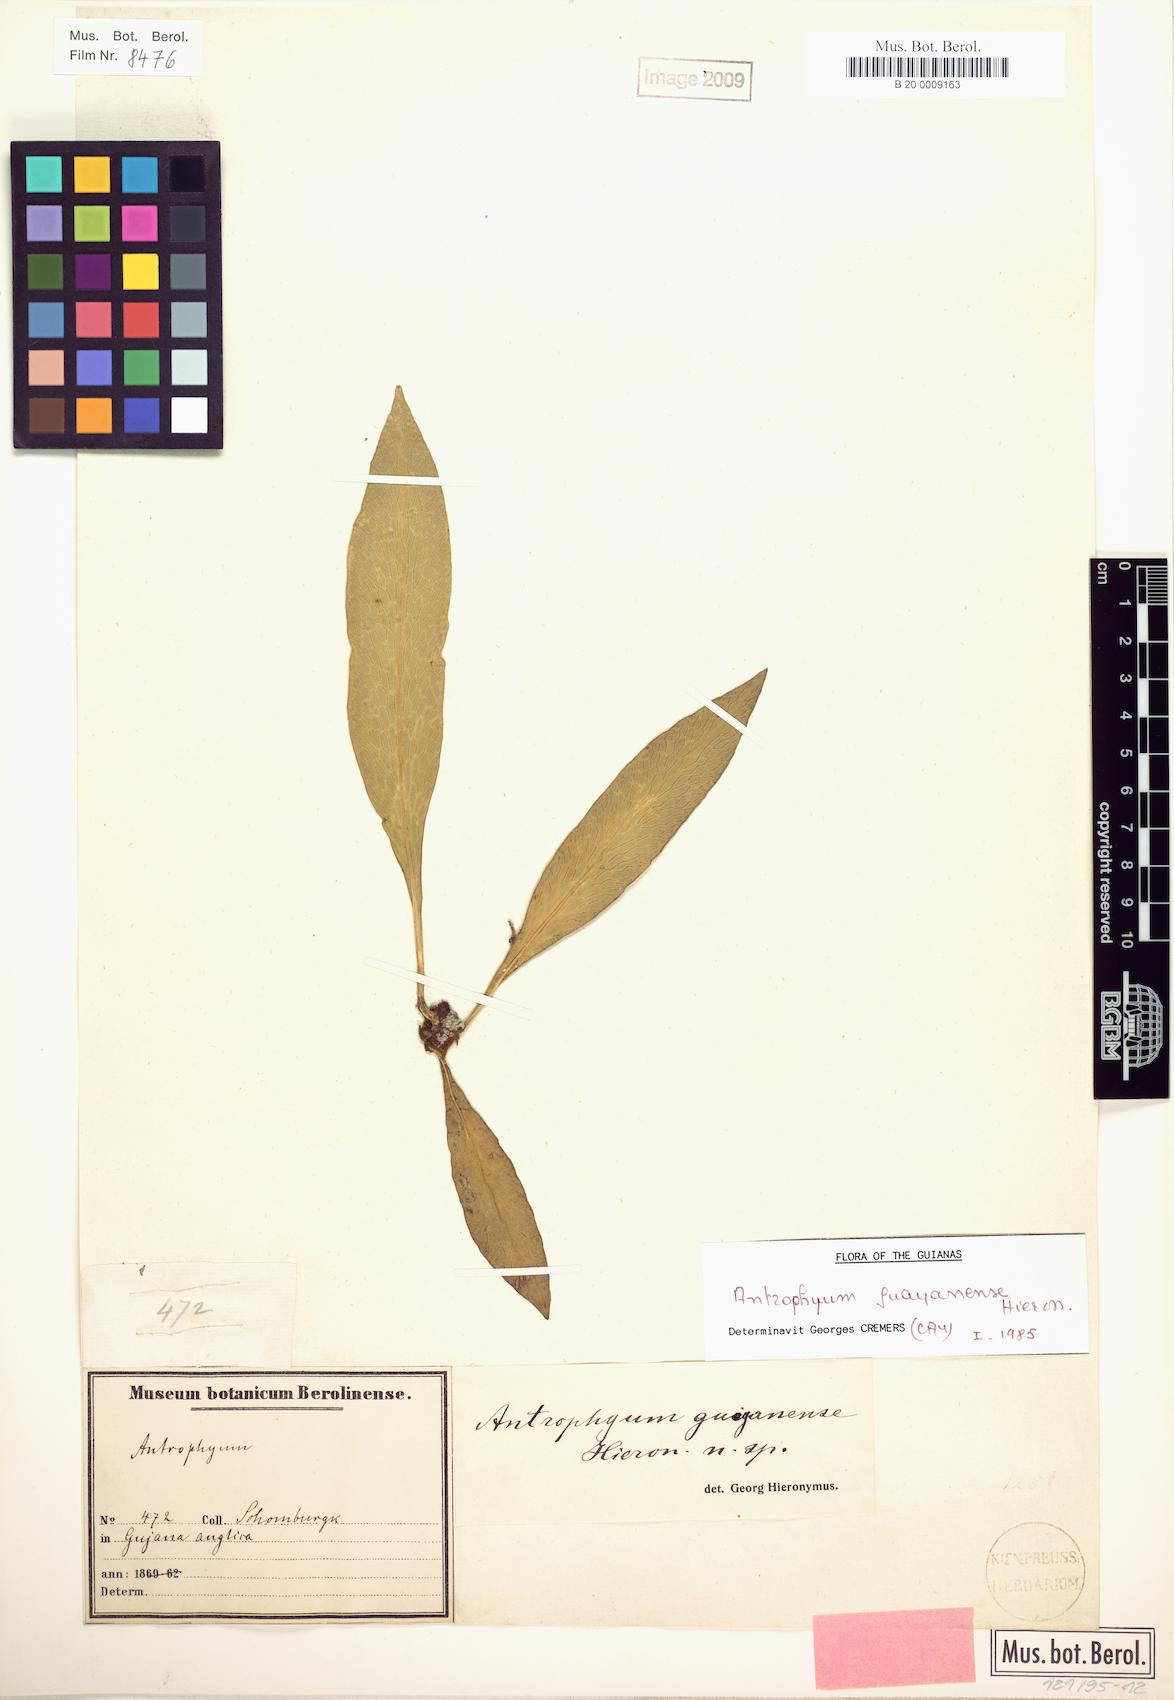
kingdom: Plantae
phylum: Tracheophyta
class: Polypodiopsida
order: Polypodiales
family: Pteridaceae
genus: Polytaenium
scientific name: Polytaenium guayanense
